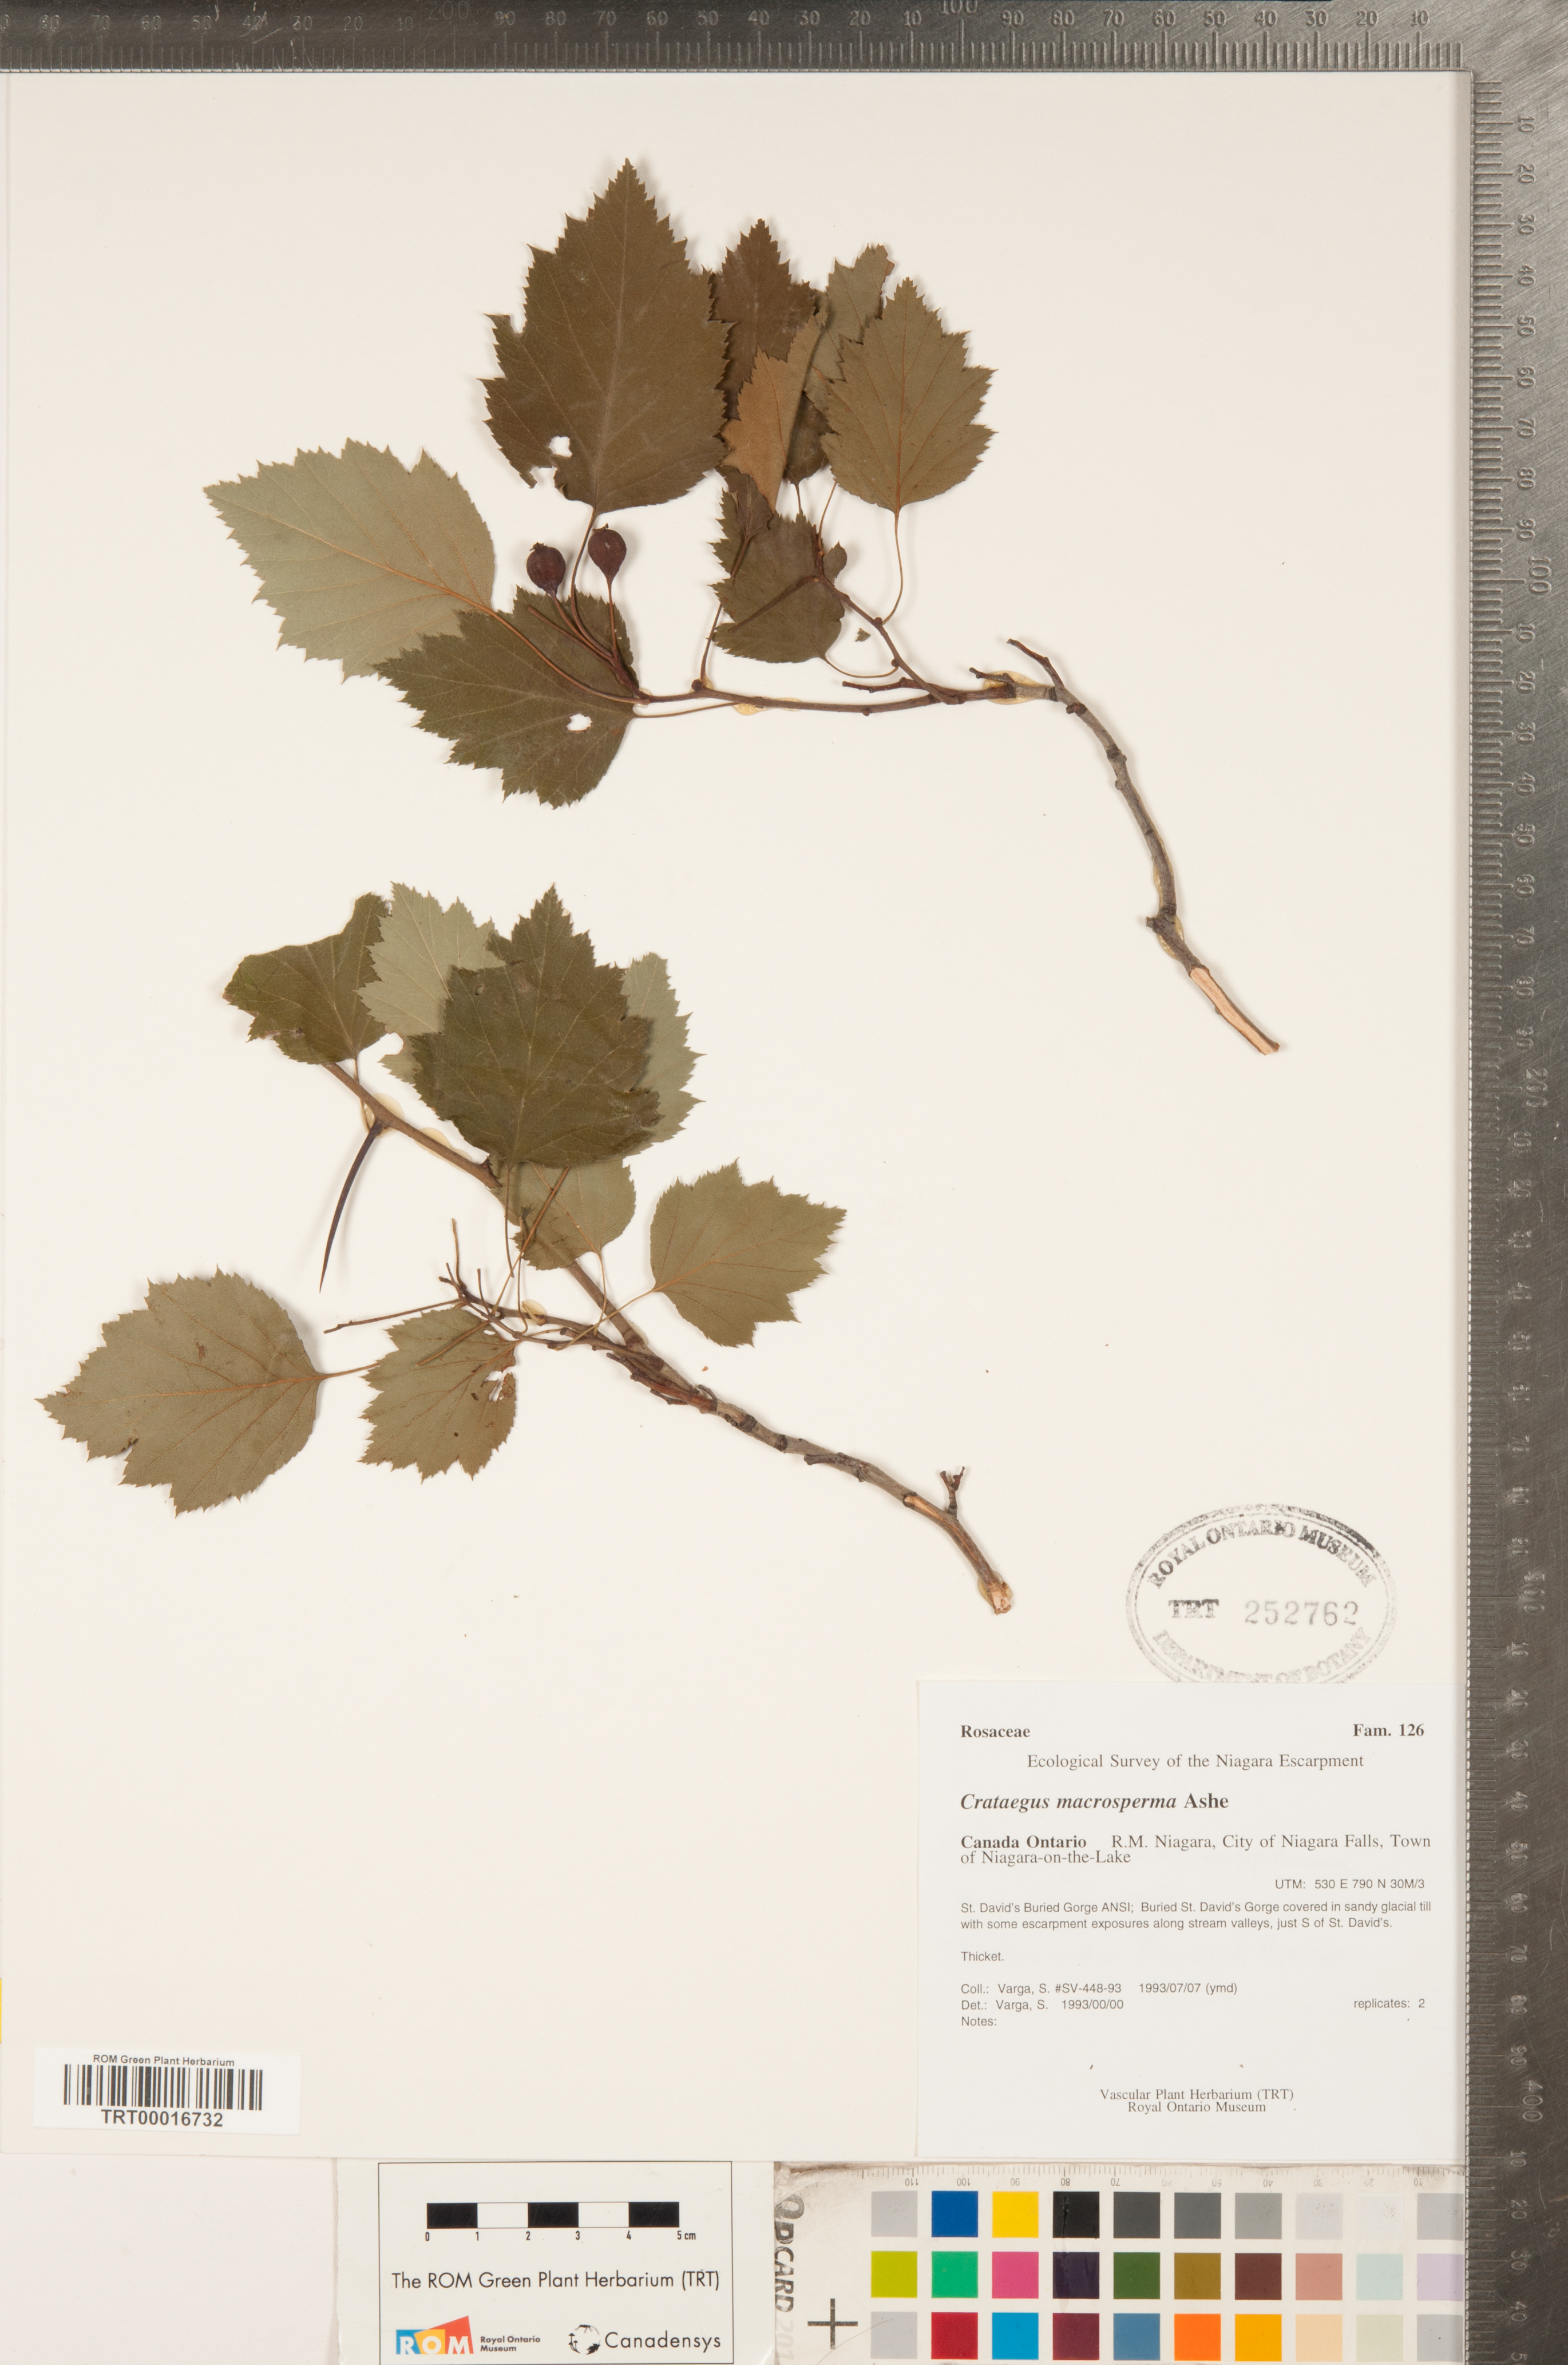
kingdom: Plantae
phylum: Tracheophyta
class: Magnoliopsida
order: Rosales
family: Rosaceae
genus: Crataegus
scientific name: Crataegus macrosperma
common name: Variable hawthorn
